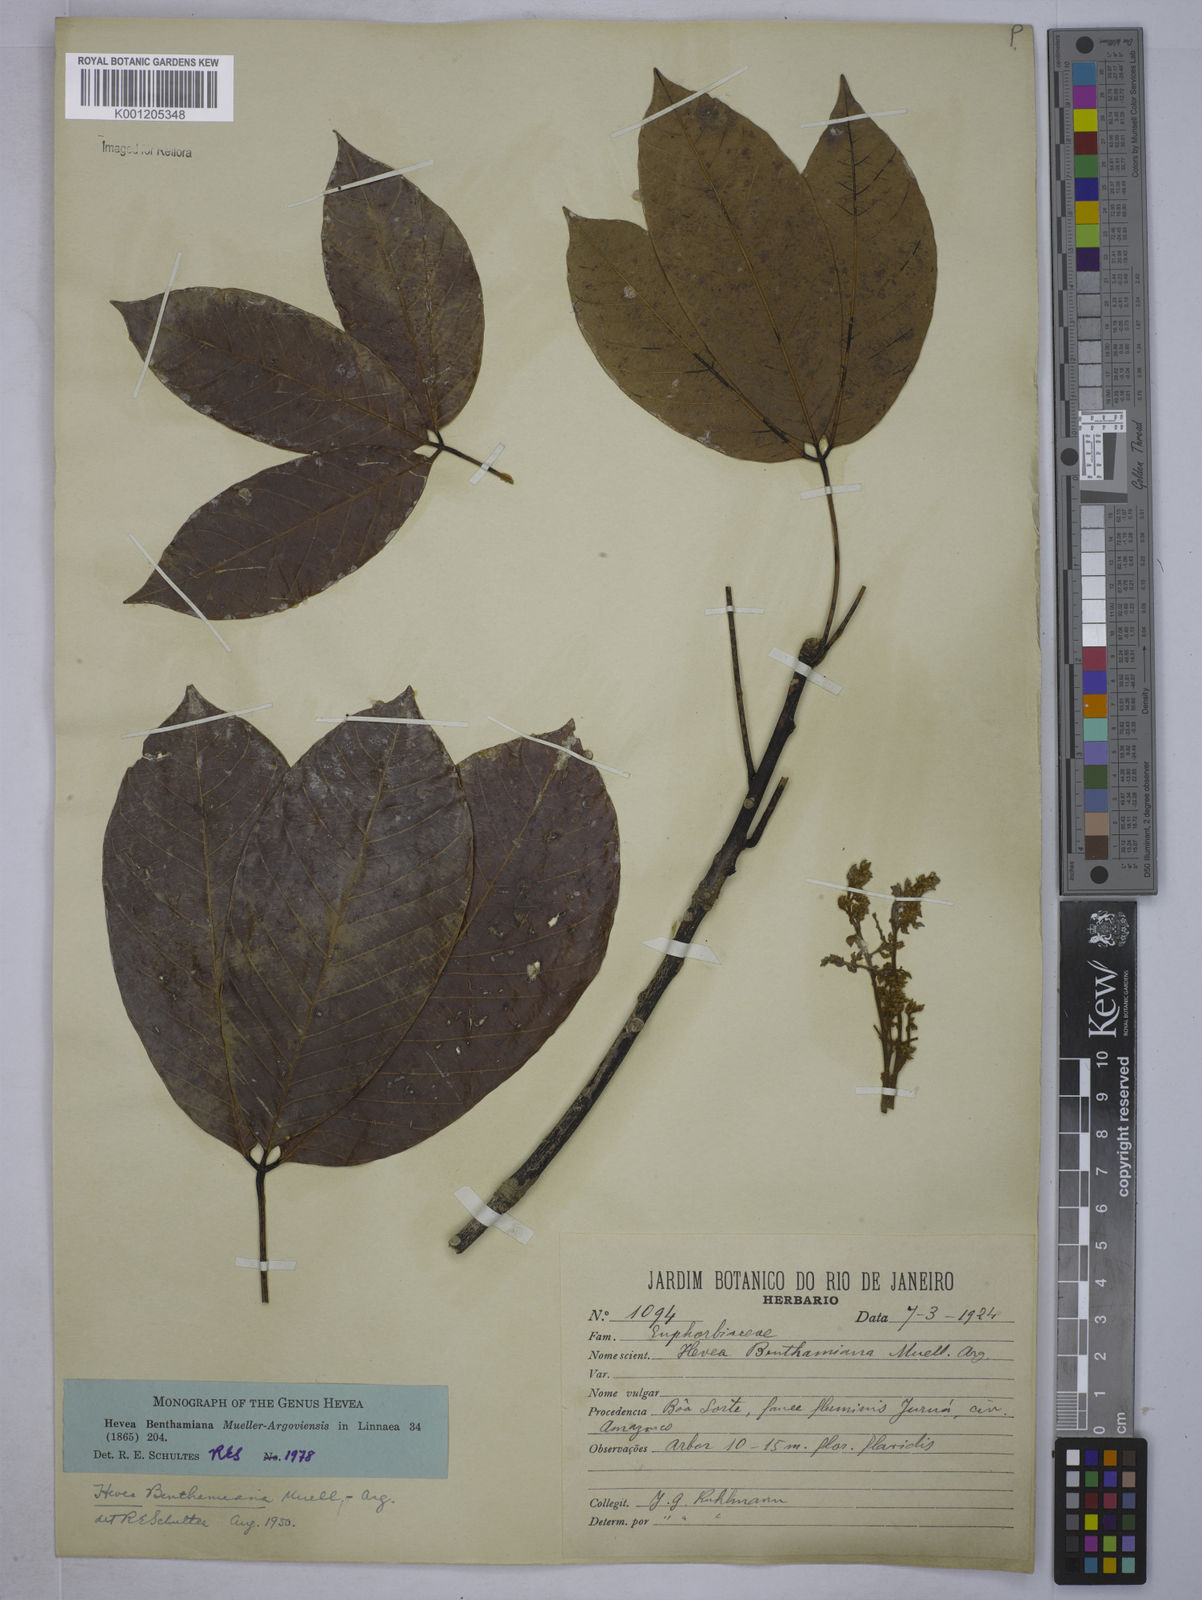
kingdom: Plantae
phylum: Tracheophyta
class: Magnoliopsida
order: Malpighiales
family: Euphorbiaceae
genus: Hevea
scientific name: Hevea
